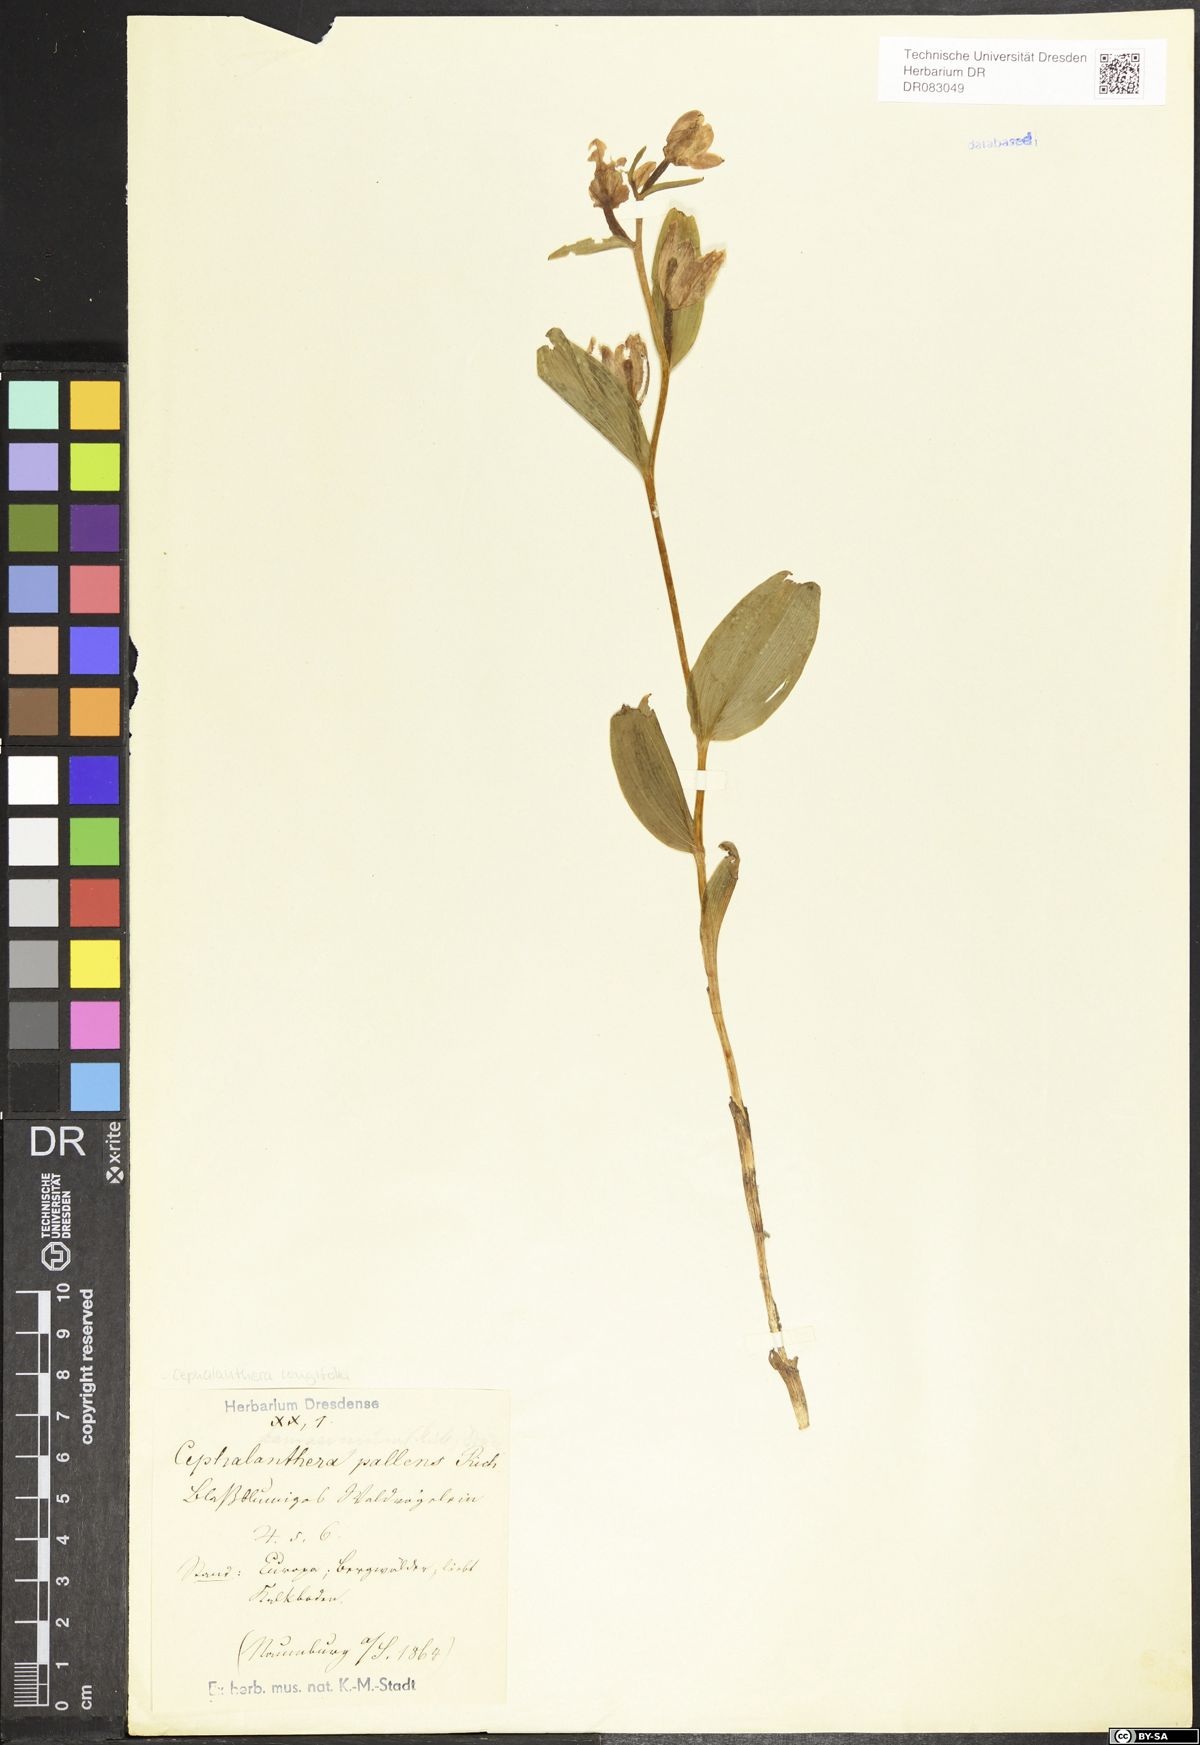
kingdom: Plantae
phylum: Tracheophyta
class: Liliopsida
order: Asparagales
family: Orchidaceae
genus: Cephalanthera
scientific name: Cephalanthera longifolia
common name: Narrow-leaved helleborine
